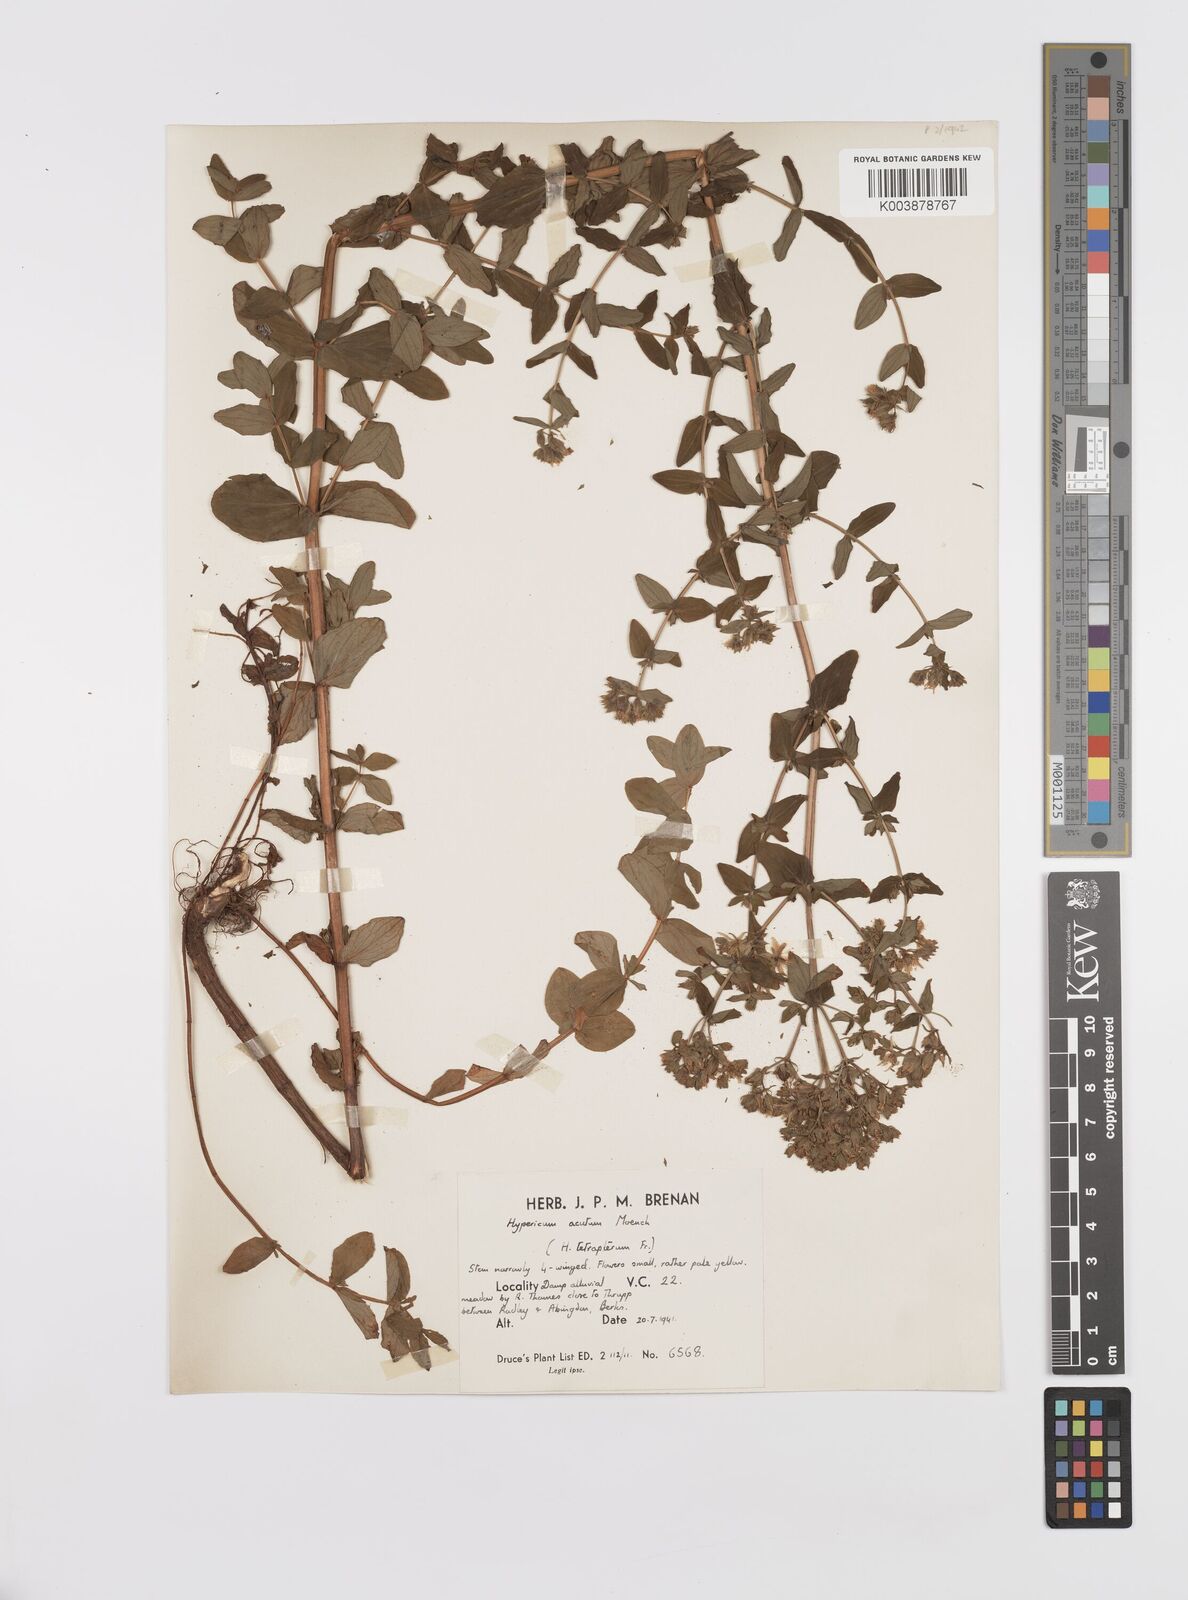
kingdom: Plantae
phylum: Tracheophyta
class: Magnoliopsida
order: Malpighiales
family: Hypericaceae
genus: Hypericum
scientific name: Hypericum tetrapterum
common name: Square-stalked st. john's-wort
